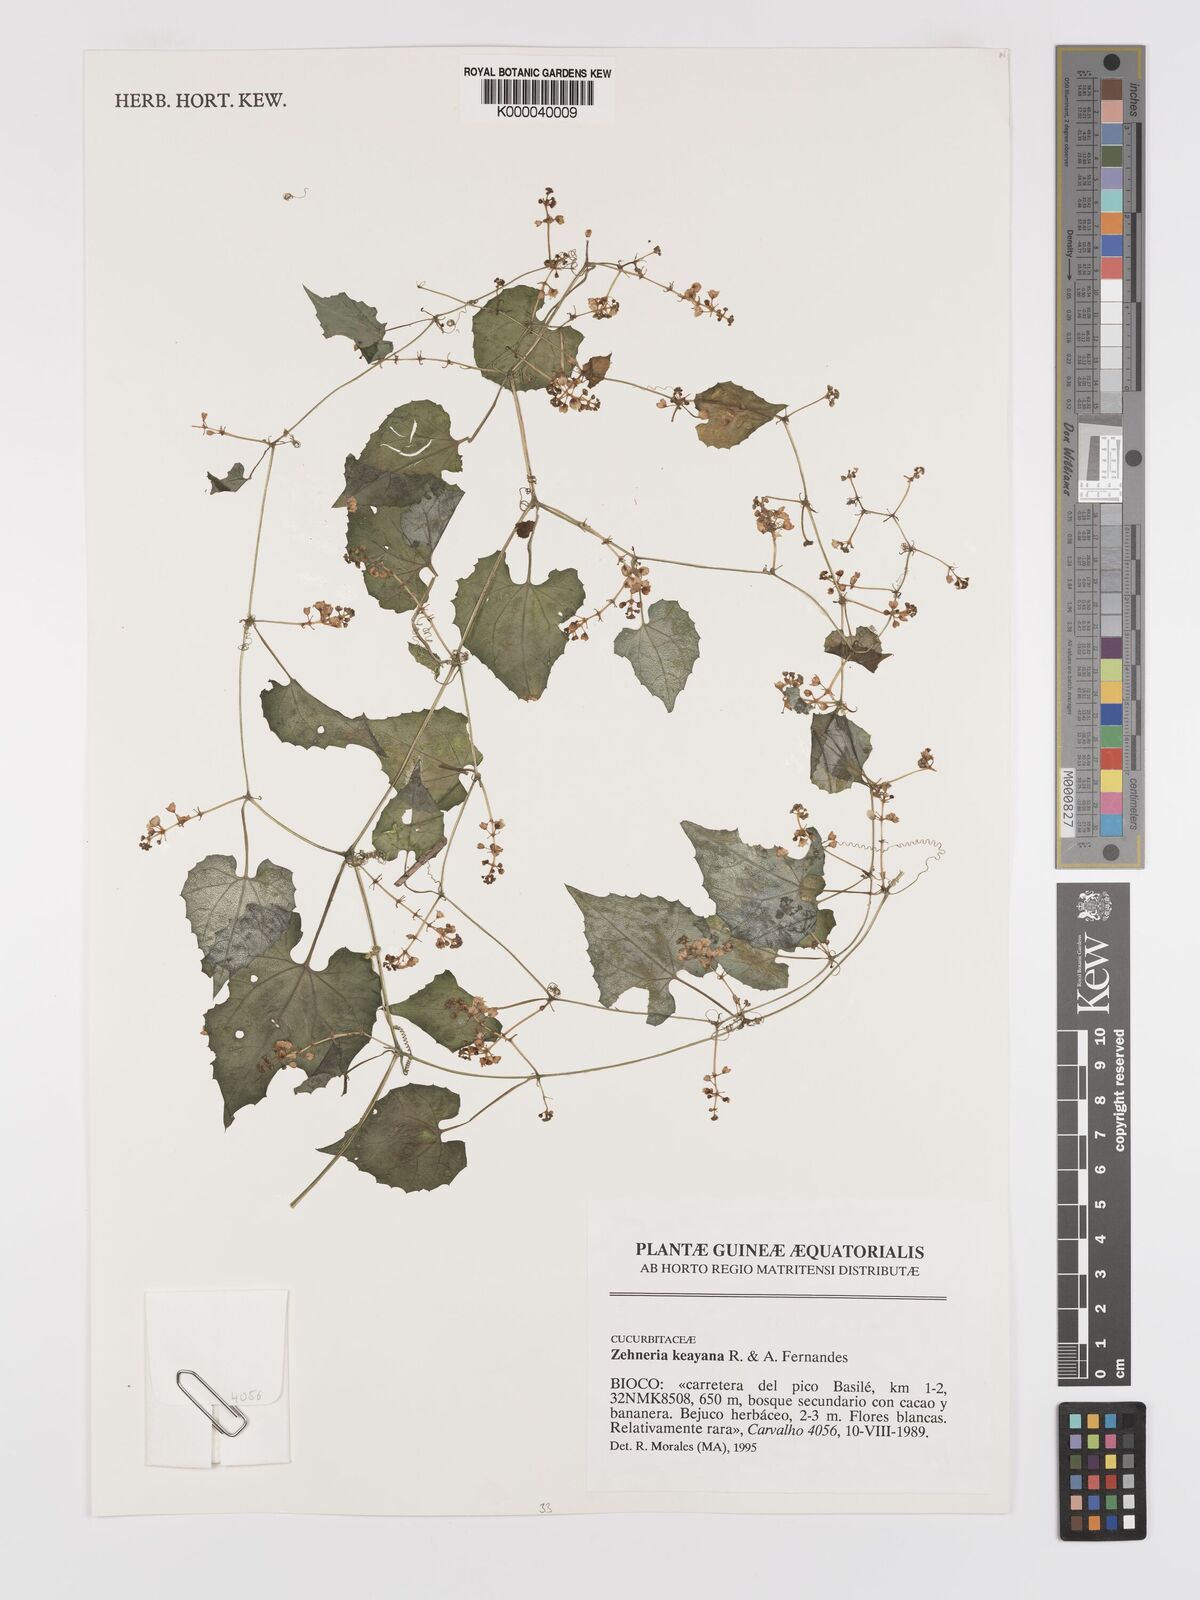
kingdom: Plantae
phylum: Tracheophyta
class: Magnoliopsida
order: Cucurbitales
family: Cucurbitaceae
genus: Zehneria
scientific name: Zehneria keayana
